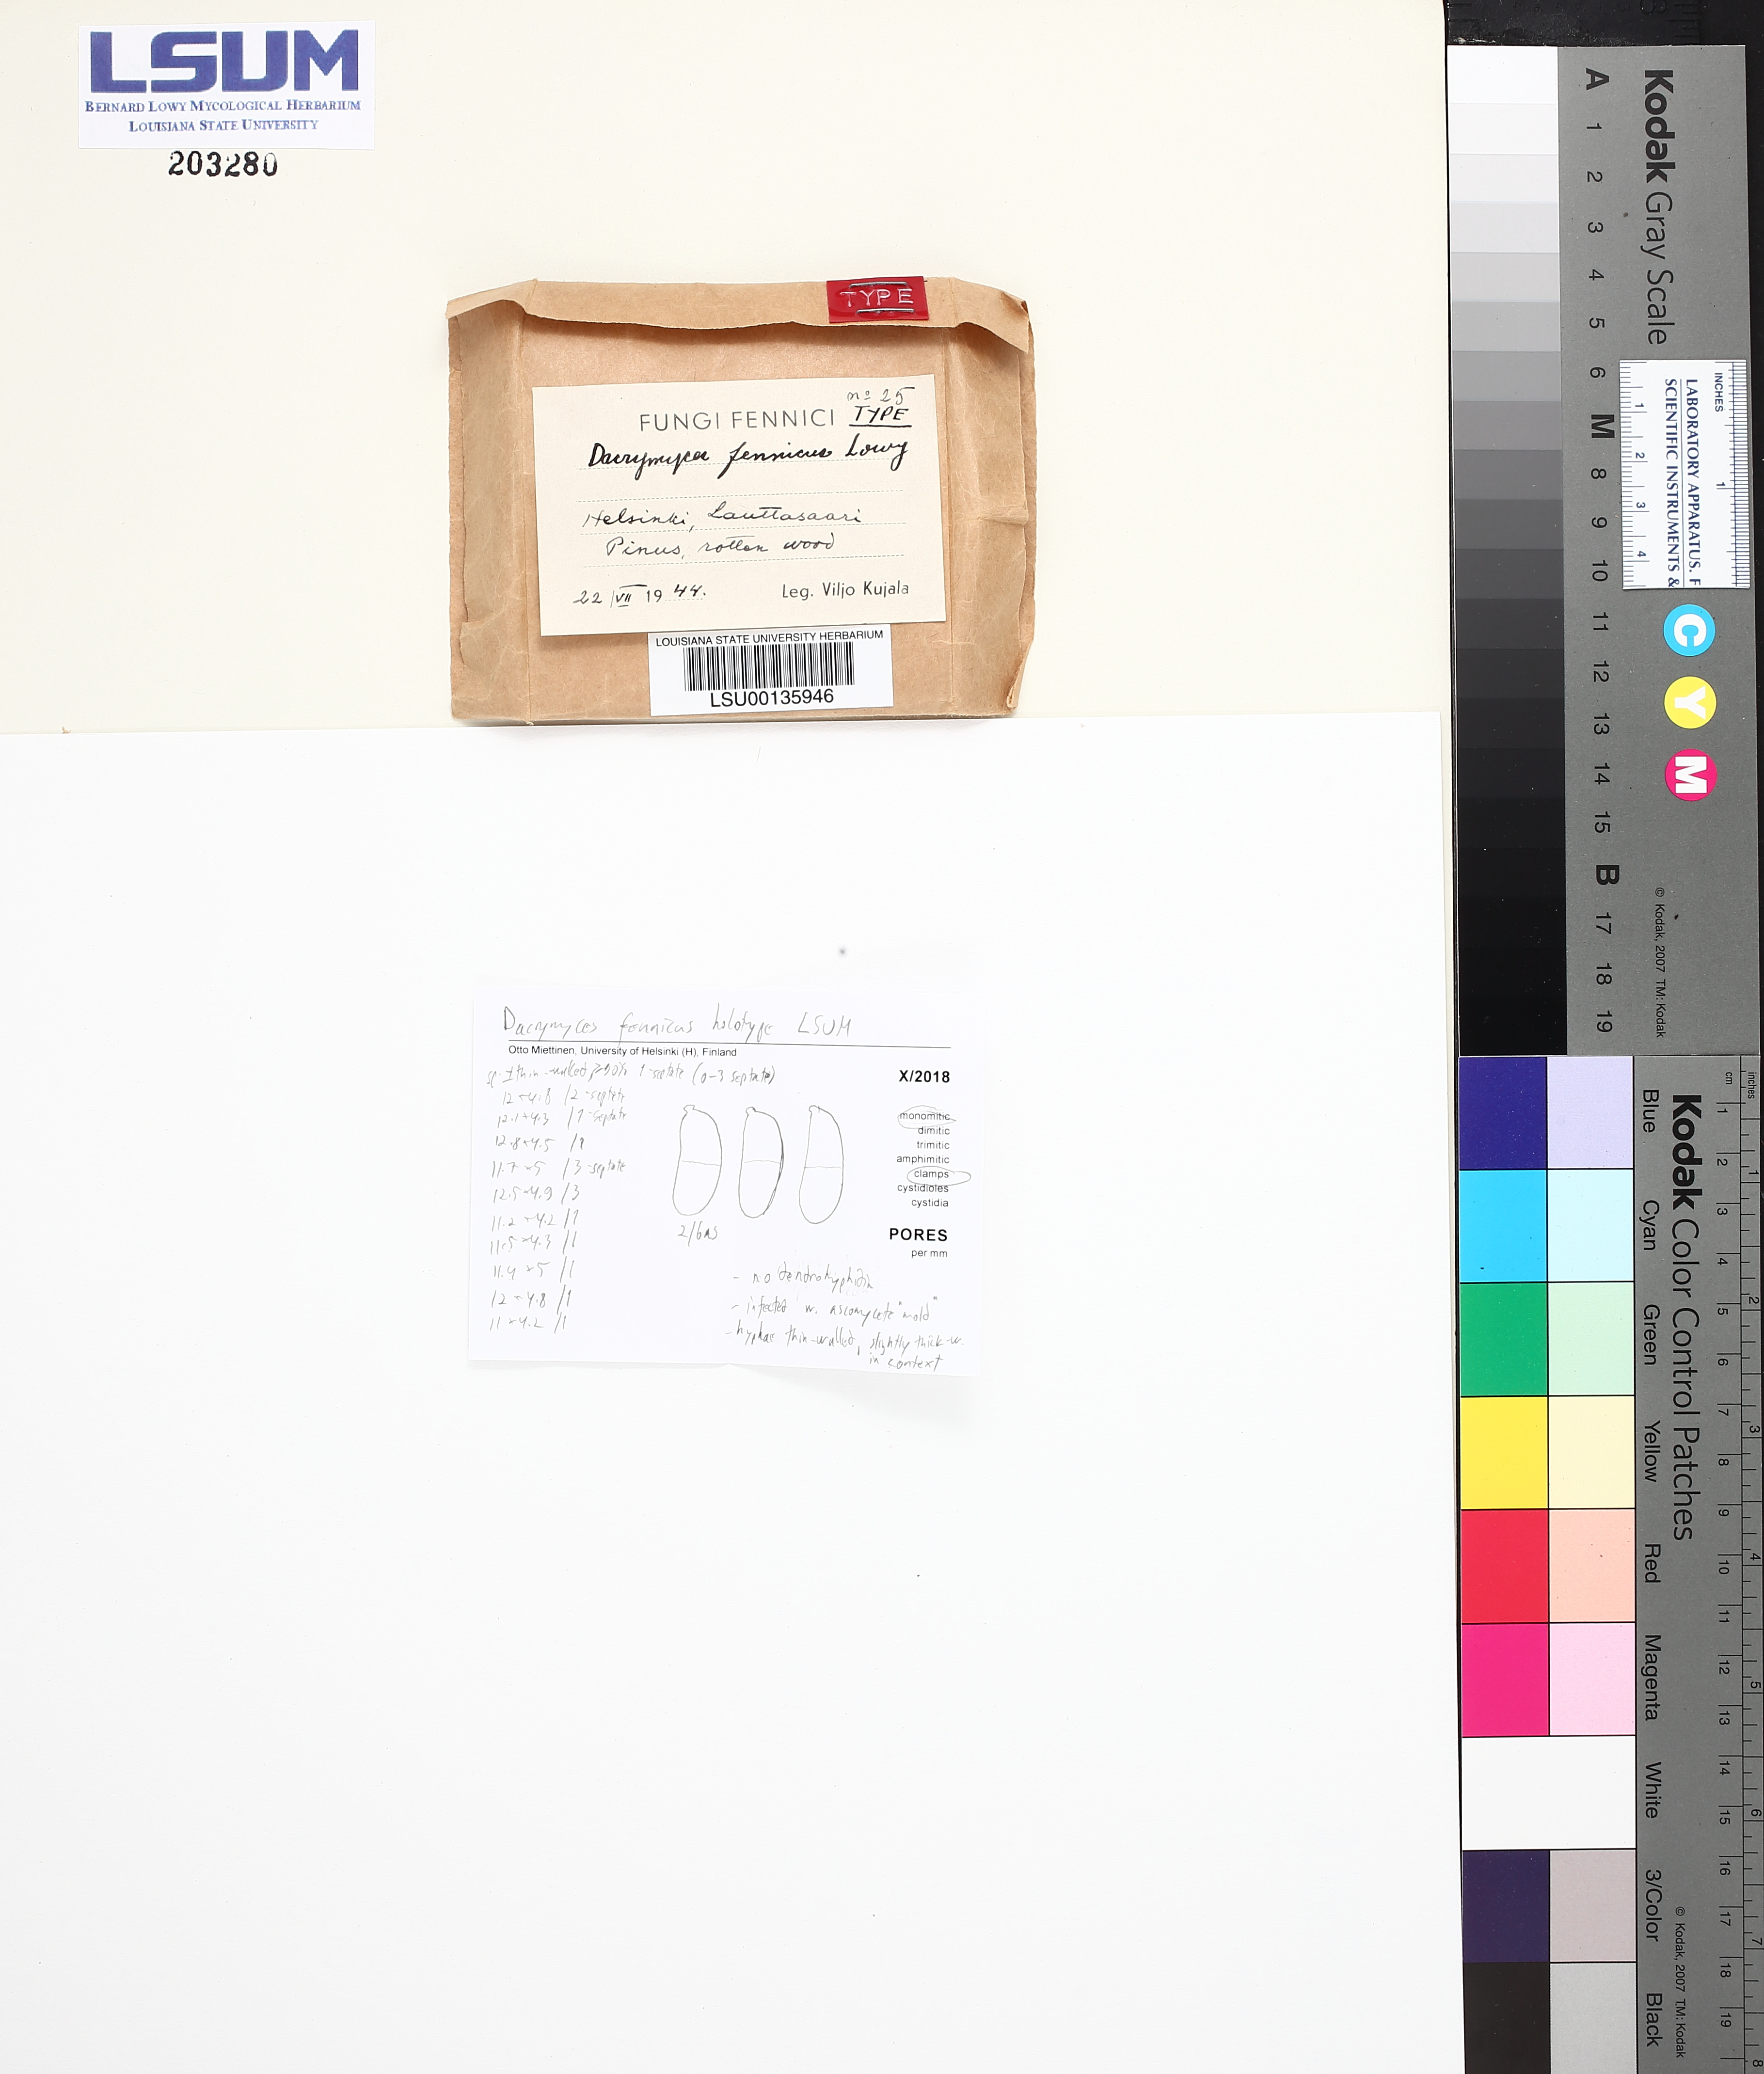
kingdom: Fungi
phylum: Basidiomycota
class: Dacrymycetes
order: Dacrymycetales
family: Dacrymycetaceae
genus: Dacrymyces
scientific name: Dacrymyces fennicus
